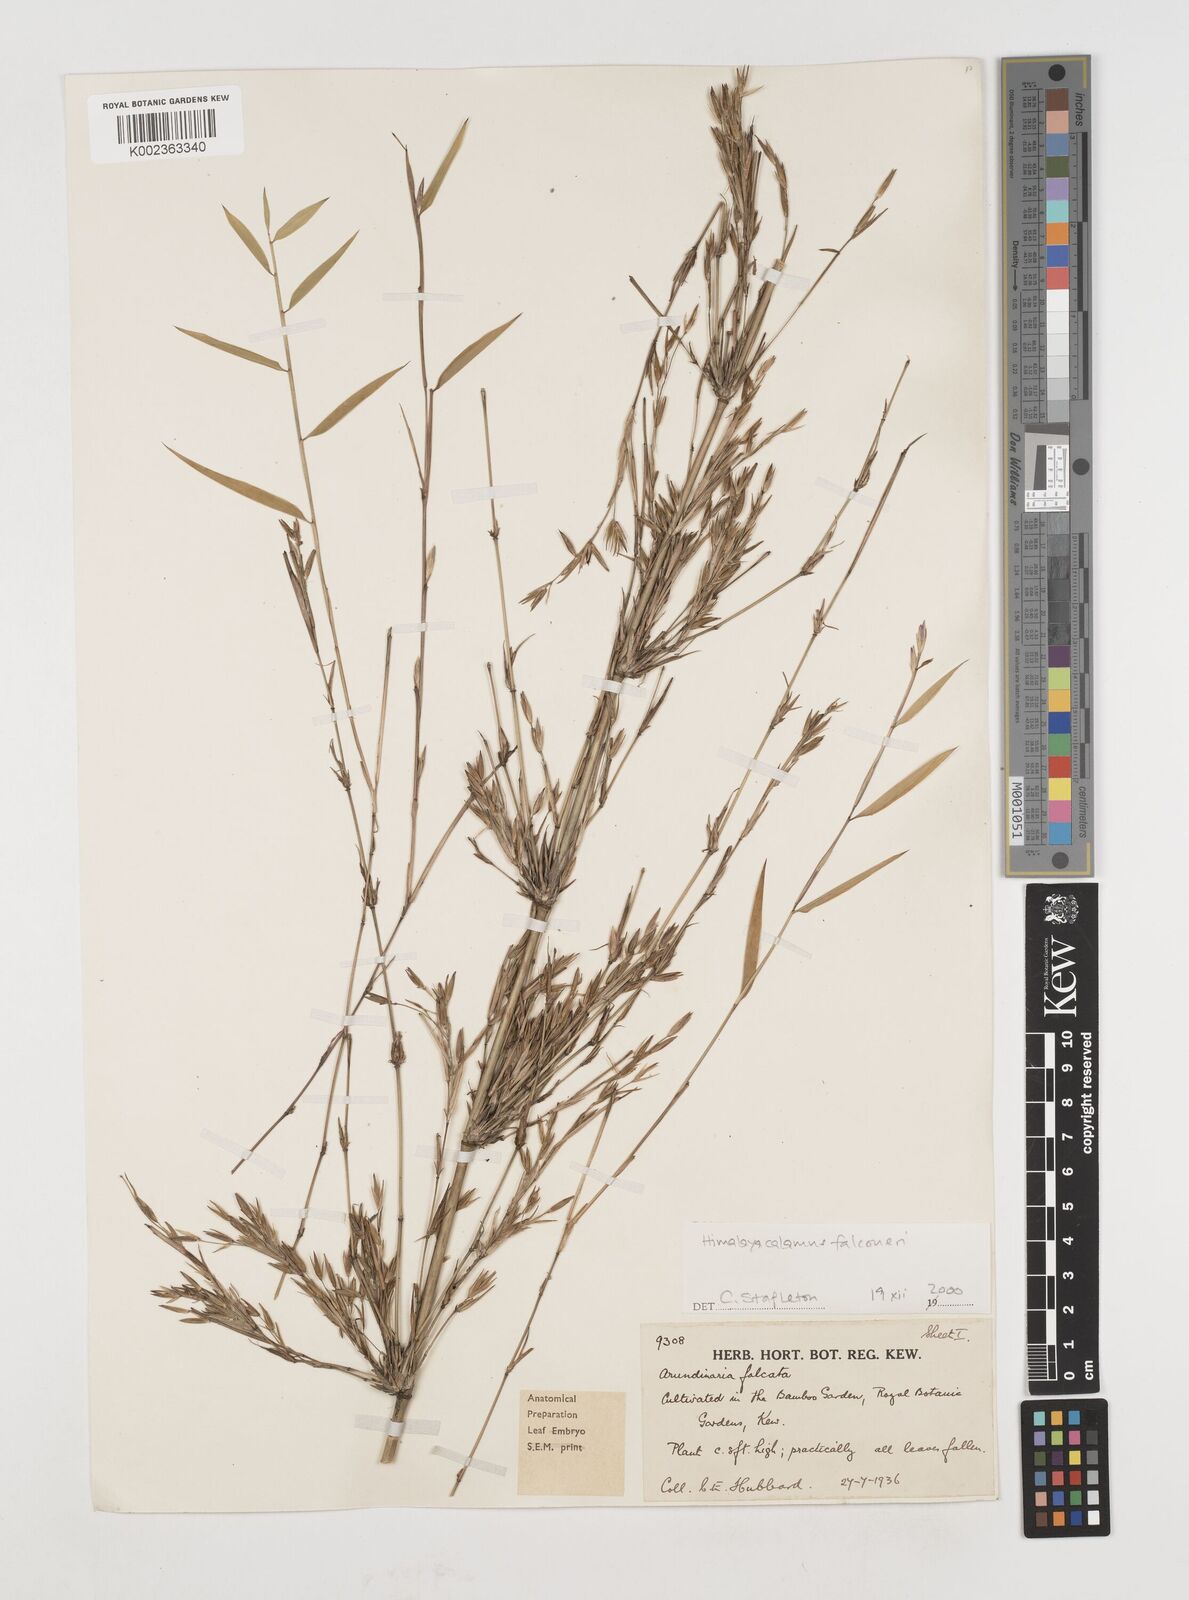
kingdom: Plantae
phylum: Tracheophyta
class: Liliopsida
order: Poales
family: Poaceae
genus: Himalayacalamus
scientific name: Himalayacalamus falconeri
